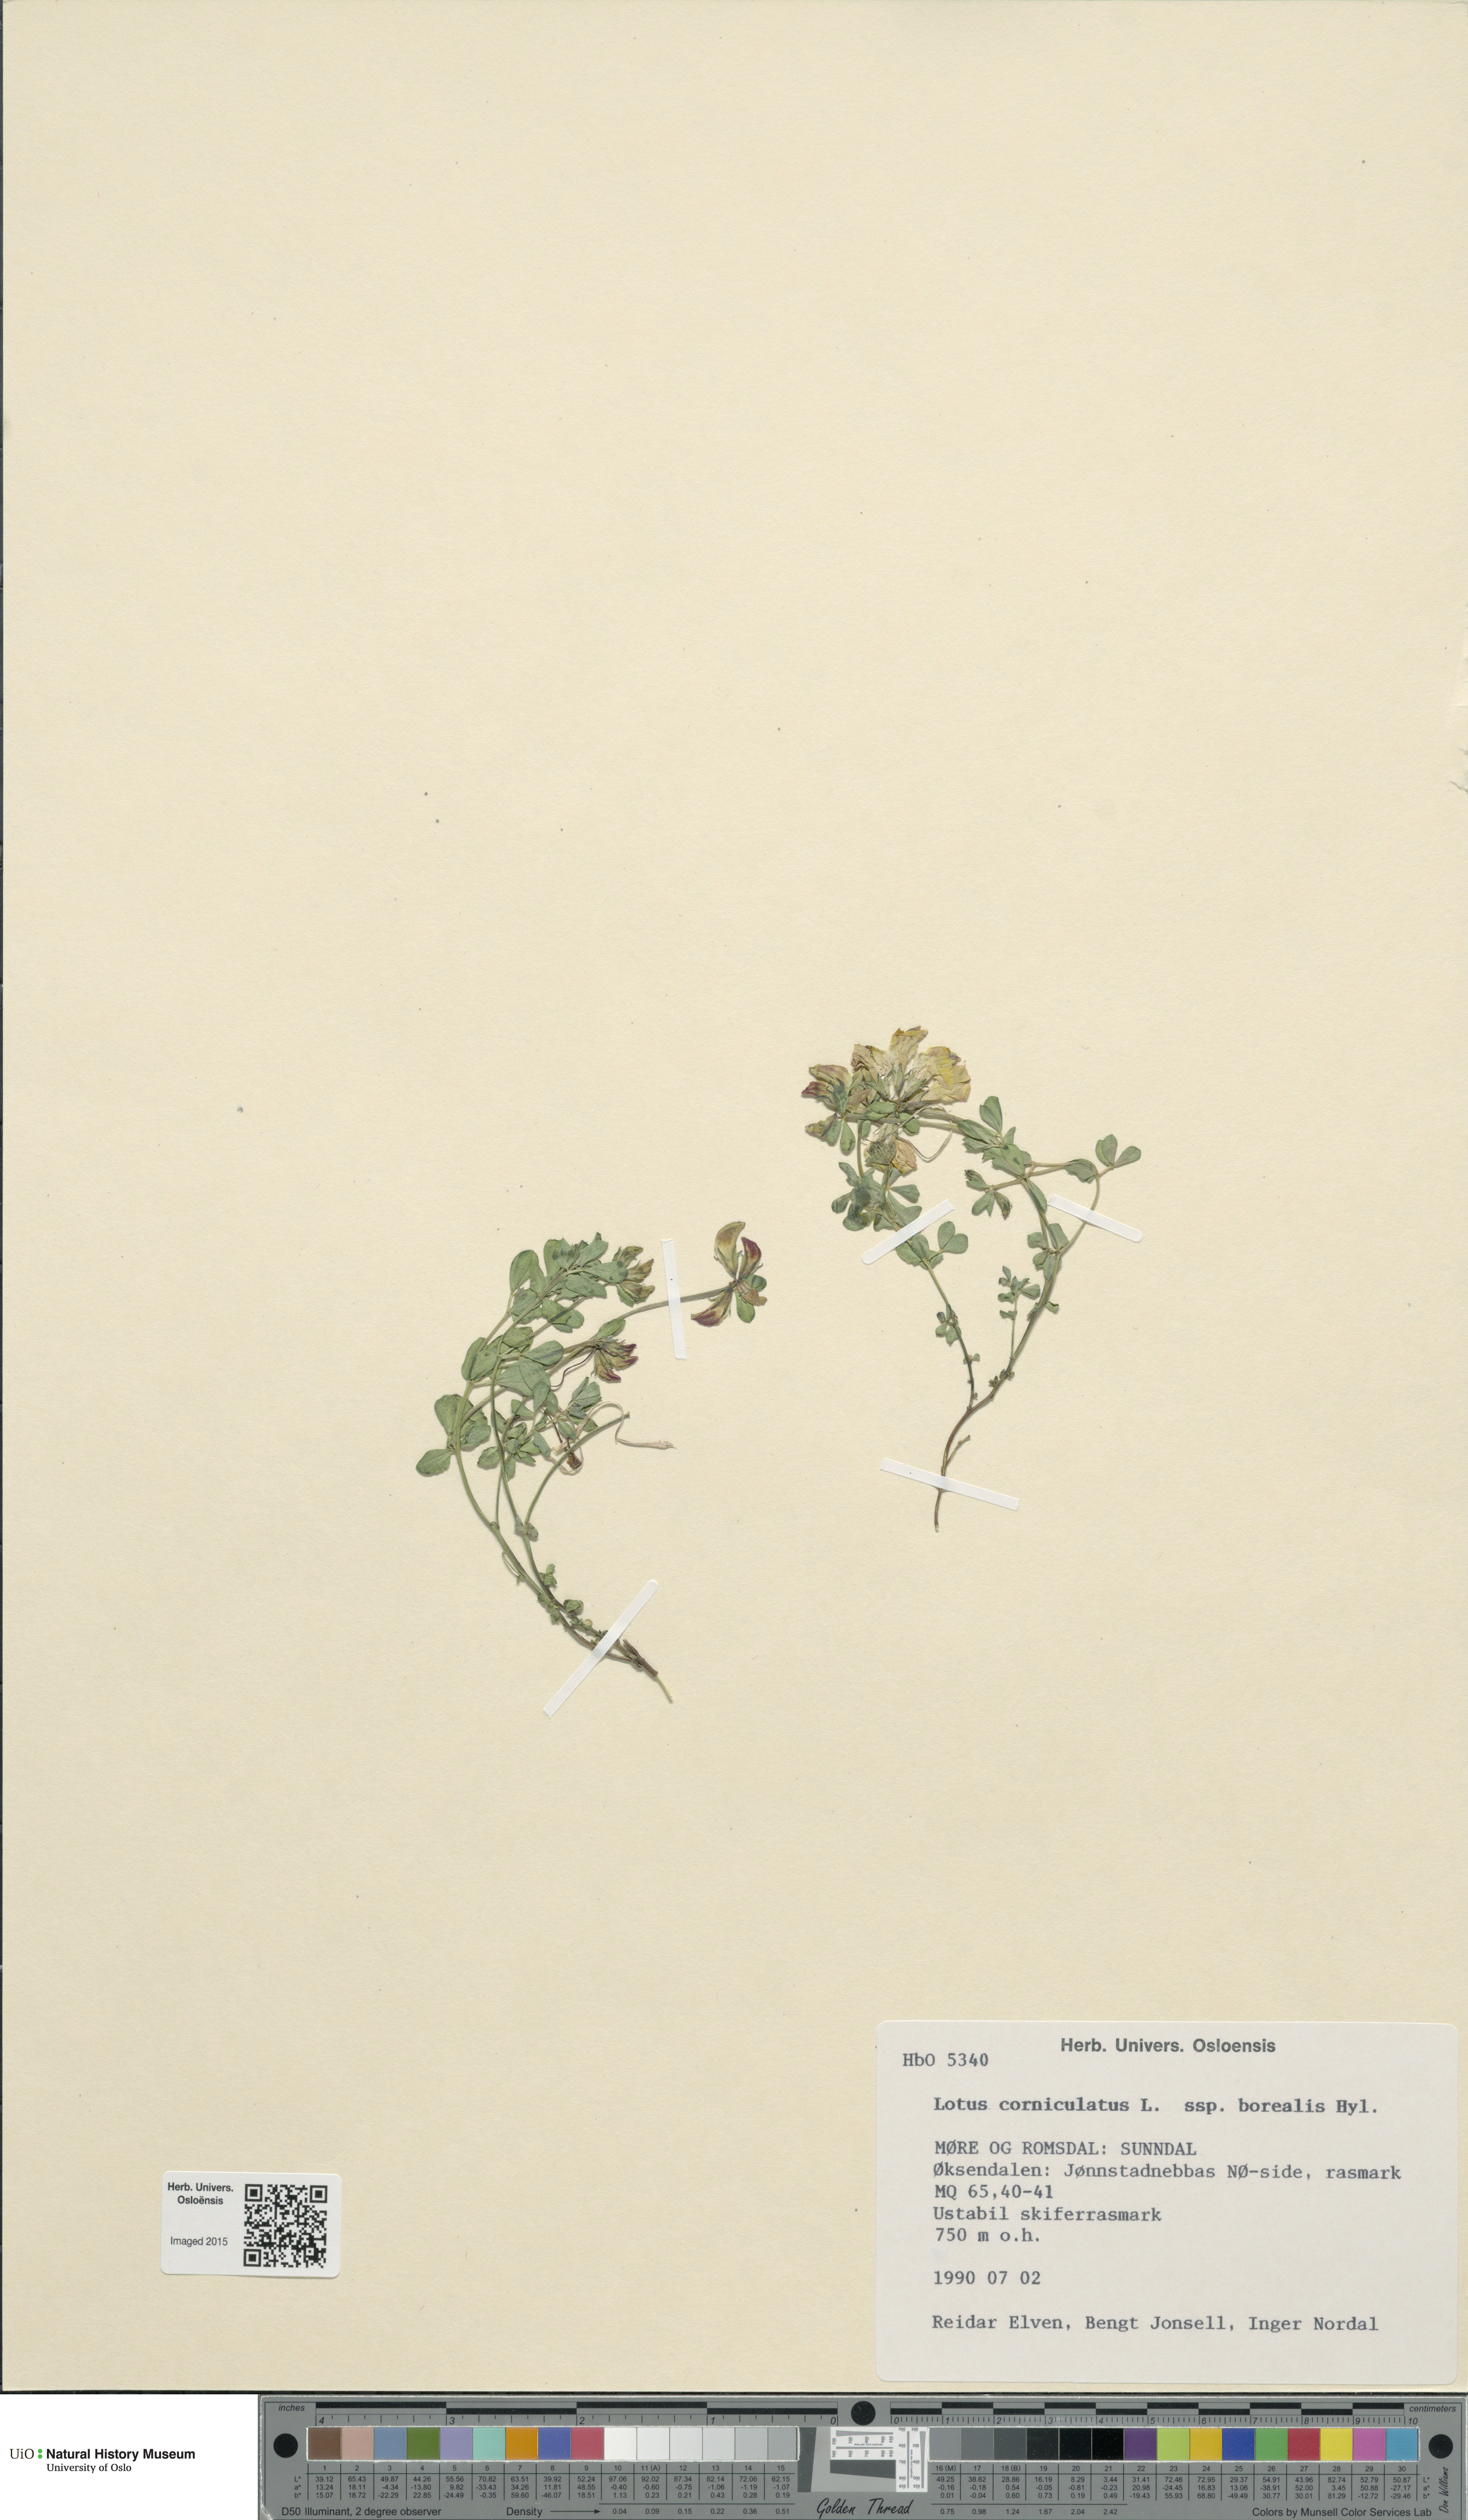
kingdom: Plantae
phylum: Tracheophyta
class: Magnoliopsida
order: Fabales
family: Fabaceae
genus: Lotus
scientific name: Lotus corniculatus
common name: Common bird's-foot-trefoil
